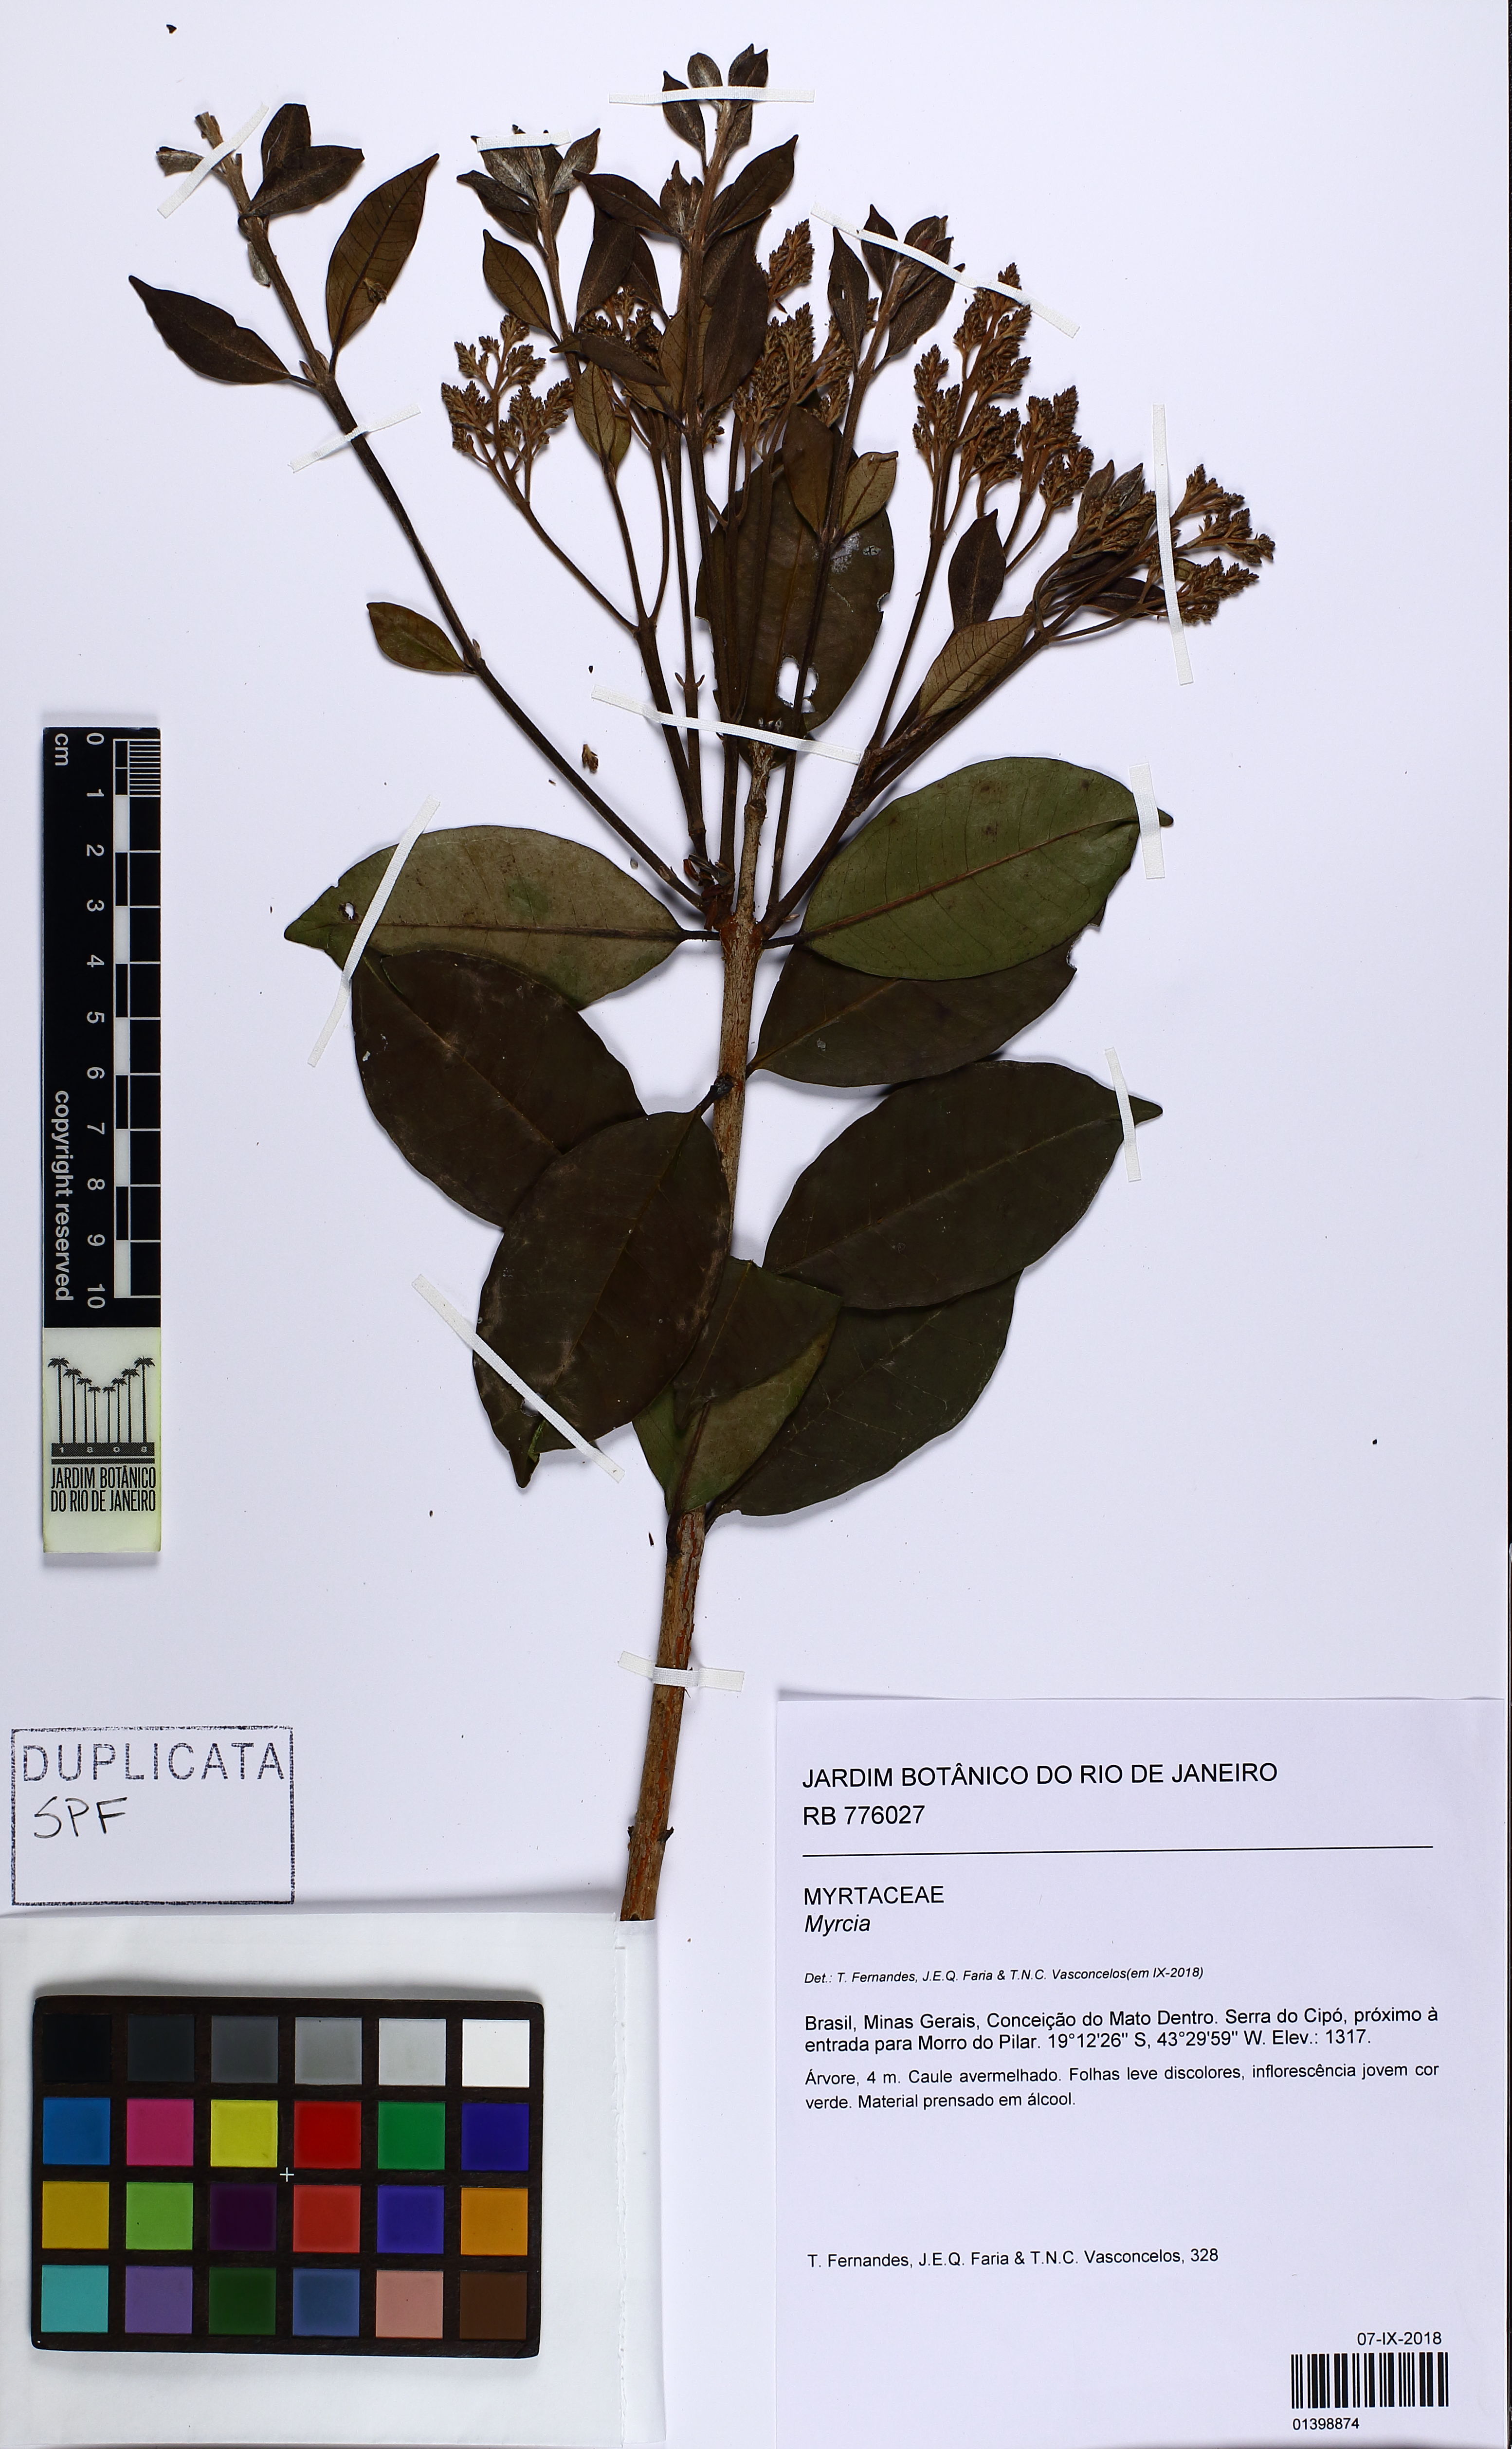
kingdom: Plantae
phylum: Tracheophyta
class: Magnoliopsida
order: Myrtales
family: Myrtaceae
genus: Myrcia
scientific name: Myrcia amazonica
